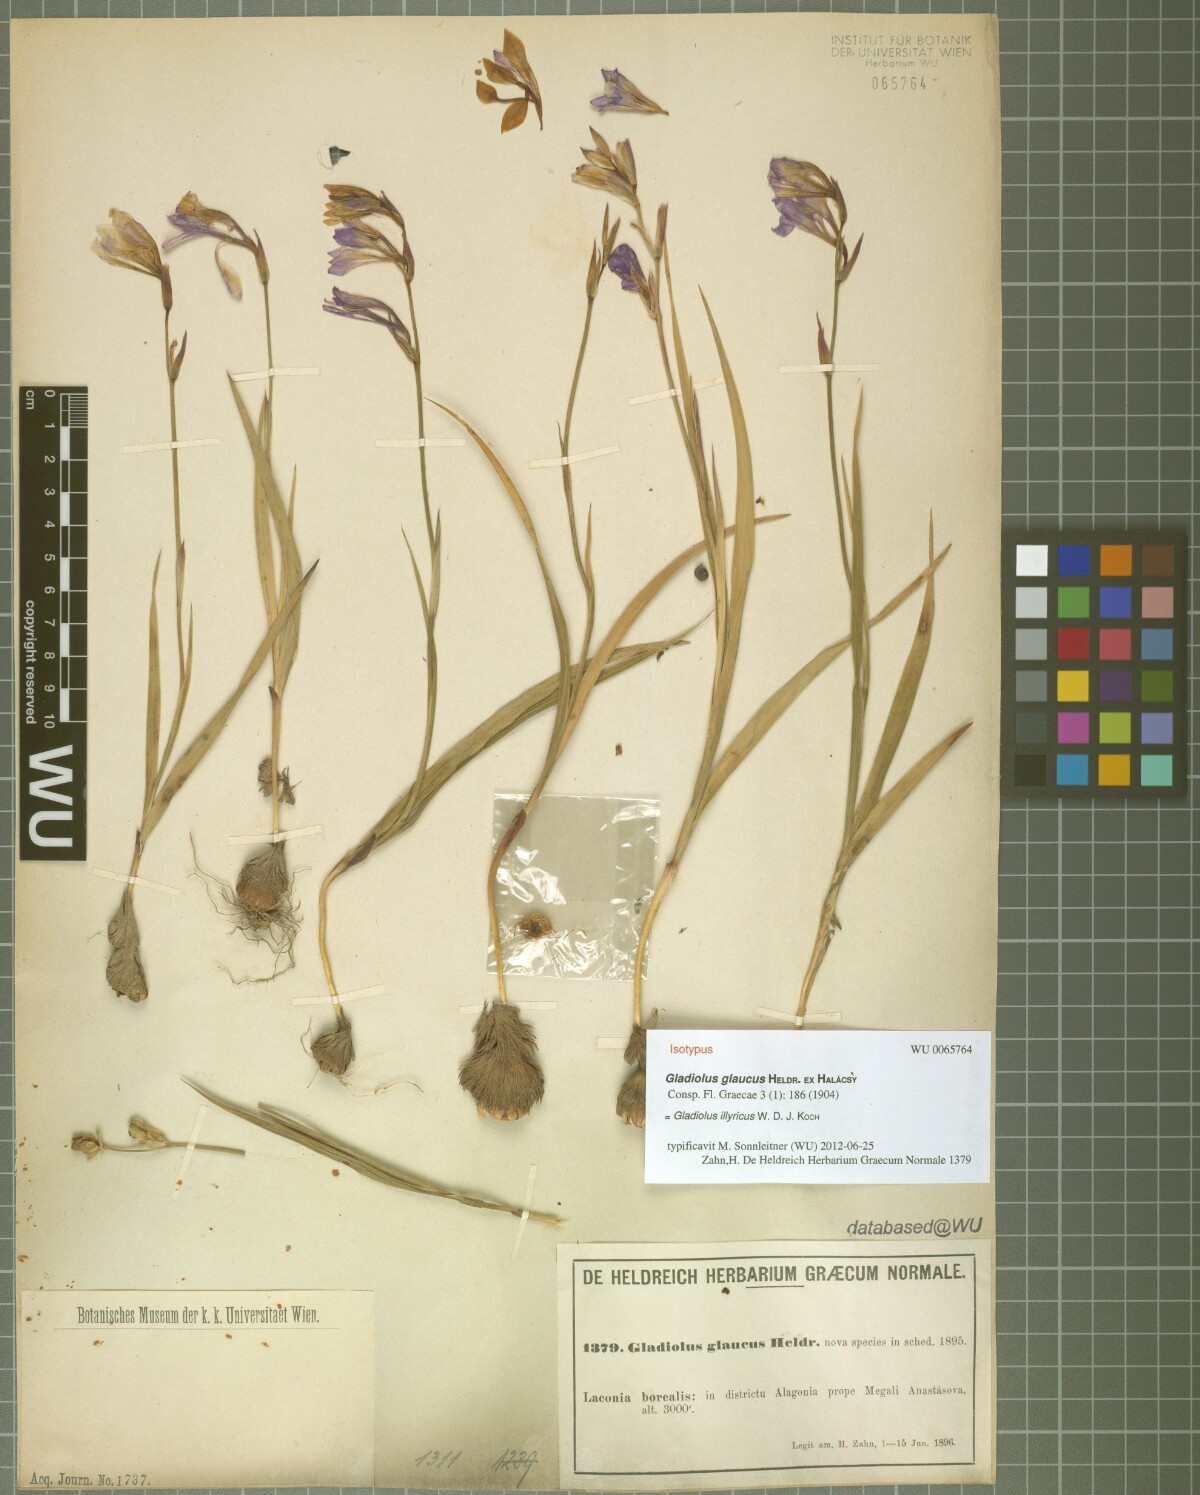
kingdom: Plantae
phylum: Tracheophyta
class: Liliopsida
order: Asparagales
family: Iridaceae
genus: Gladiolus
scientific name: Gladiolus illyricus
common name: Wild gladiolus
